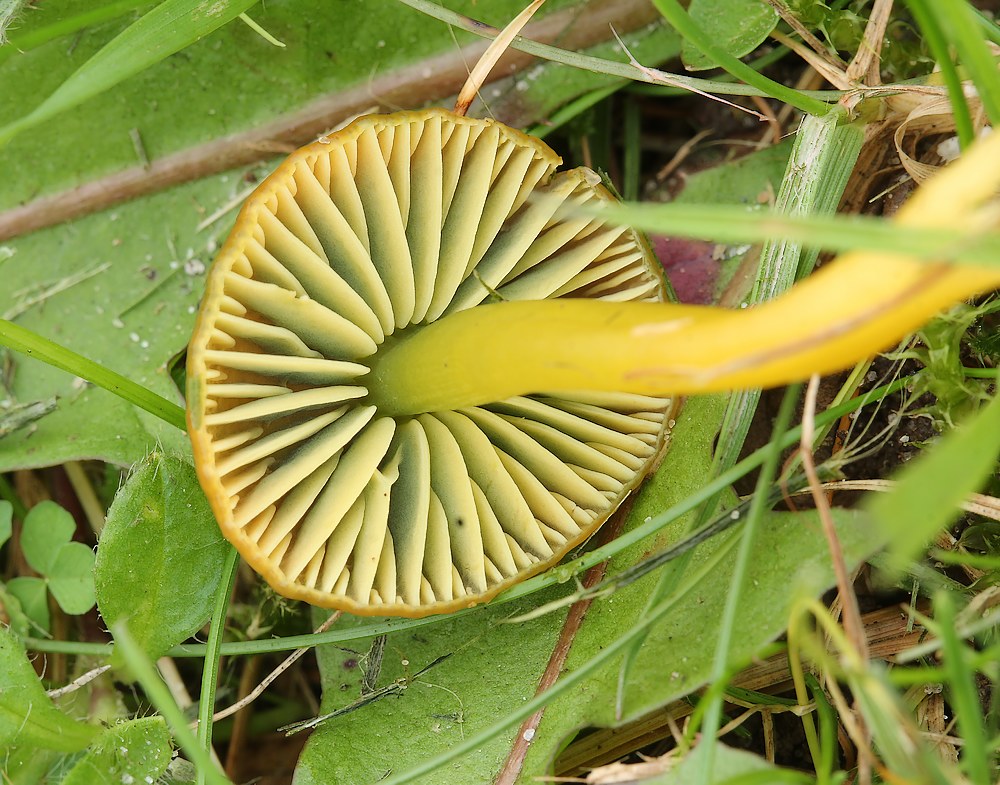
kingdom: Fungi
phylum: Basidiomycota
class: Agaricomycetes
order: Agaricales
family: Hygrophoraceae
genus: Gliophorus
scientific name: Gliophorus psittacinus
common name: papegøje-vokshat
